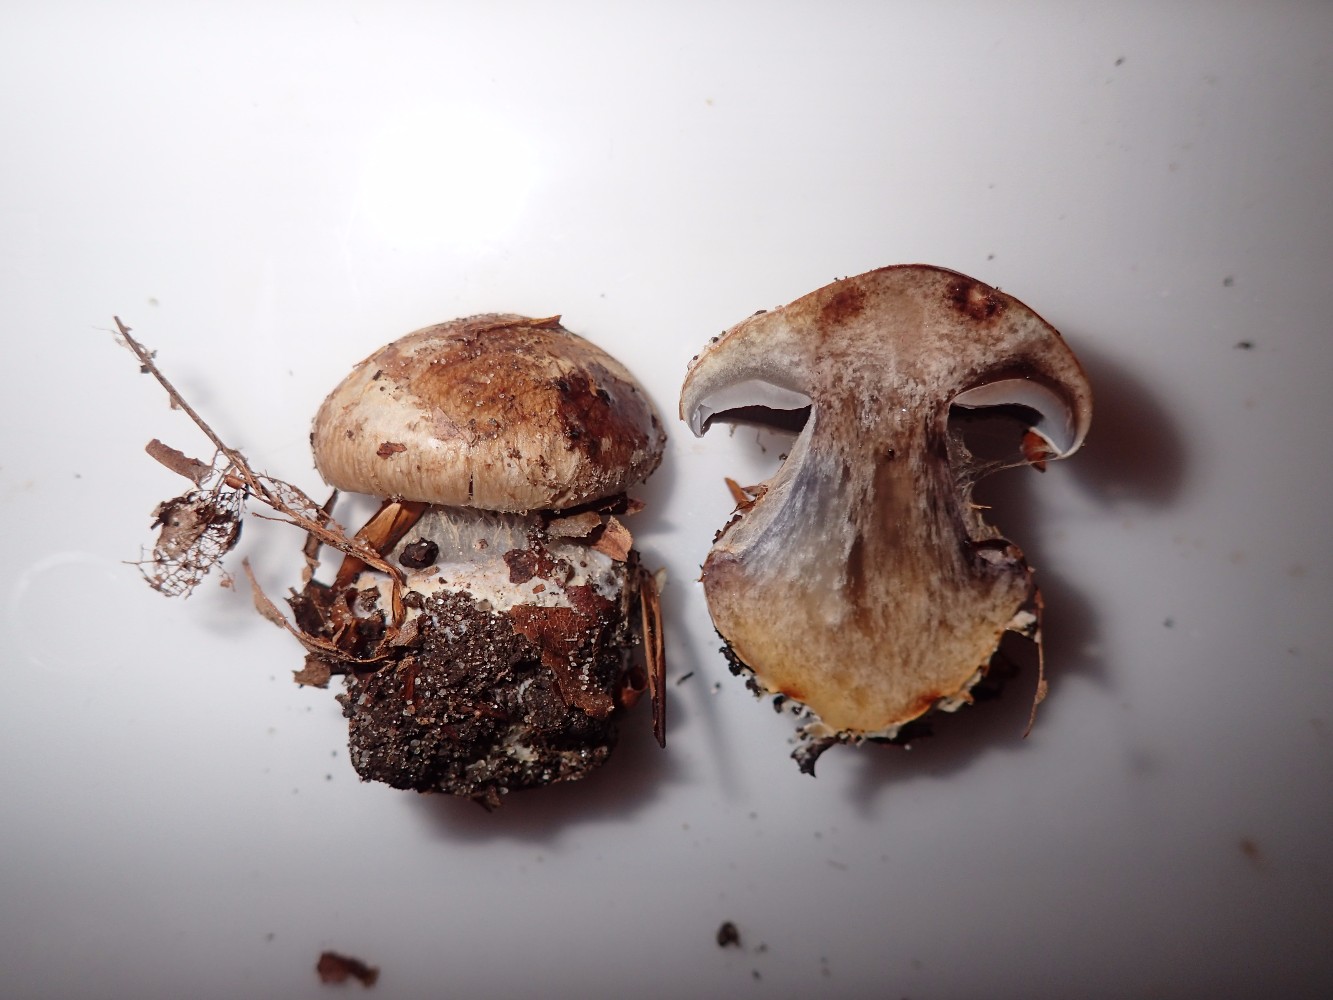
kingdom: Fungi
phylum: Basidiomycota
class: Agaricomycetes
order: Agaricales
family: Cortinariaceae
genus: Phlegmacium
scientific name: Phlegmacium luhmannii
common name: musegrå slørhat
